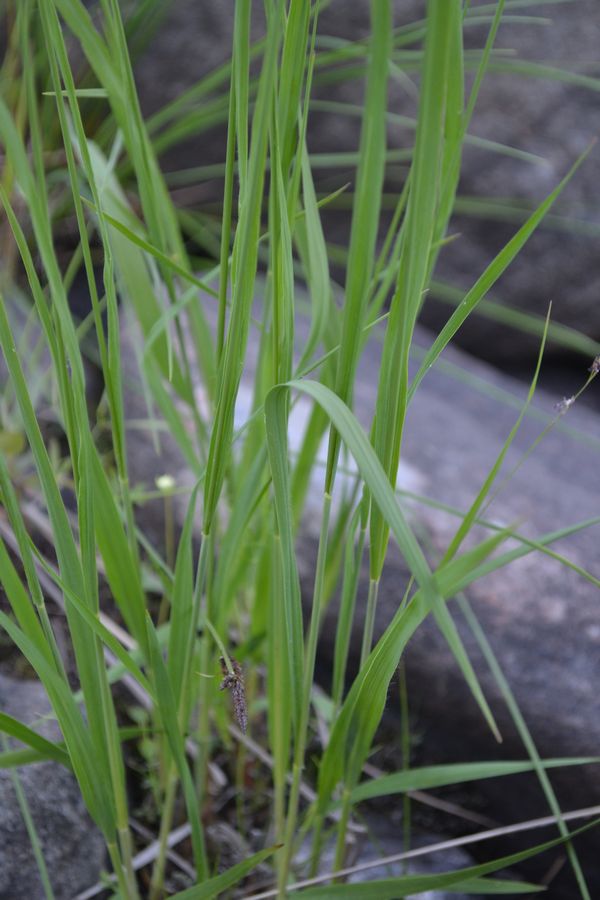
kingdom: Plantae
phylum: Tracheophyta
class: Liliopsida
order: Poales
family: Poaceae
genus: Molinia
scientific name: Molinia caerulea
